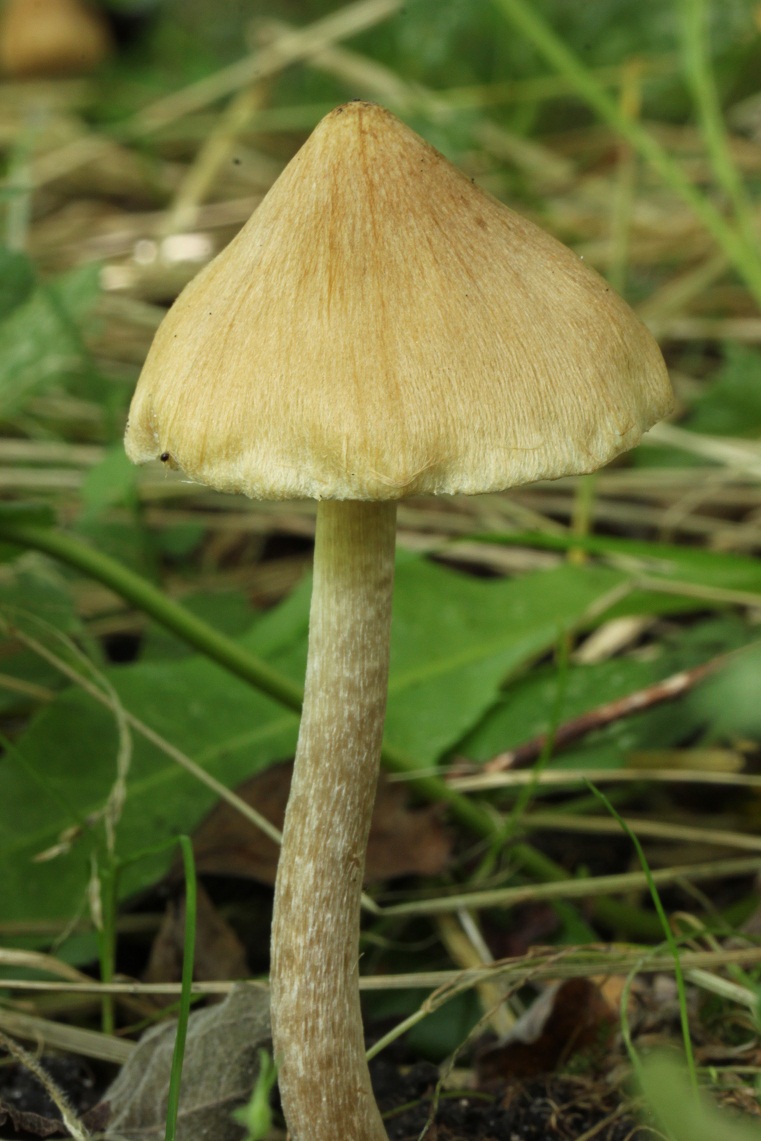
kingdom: Fungi
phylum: Basidiomycota
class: Agaricomycetes
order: Agaricales
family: Inocybaceae
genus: Pseudosperma
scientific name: Pseudosperma flavellum
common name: gul trævlhat
